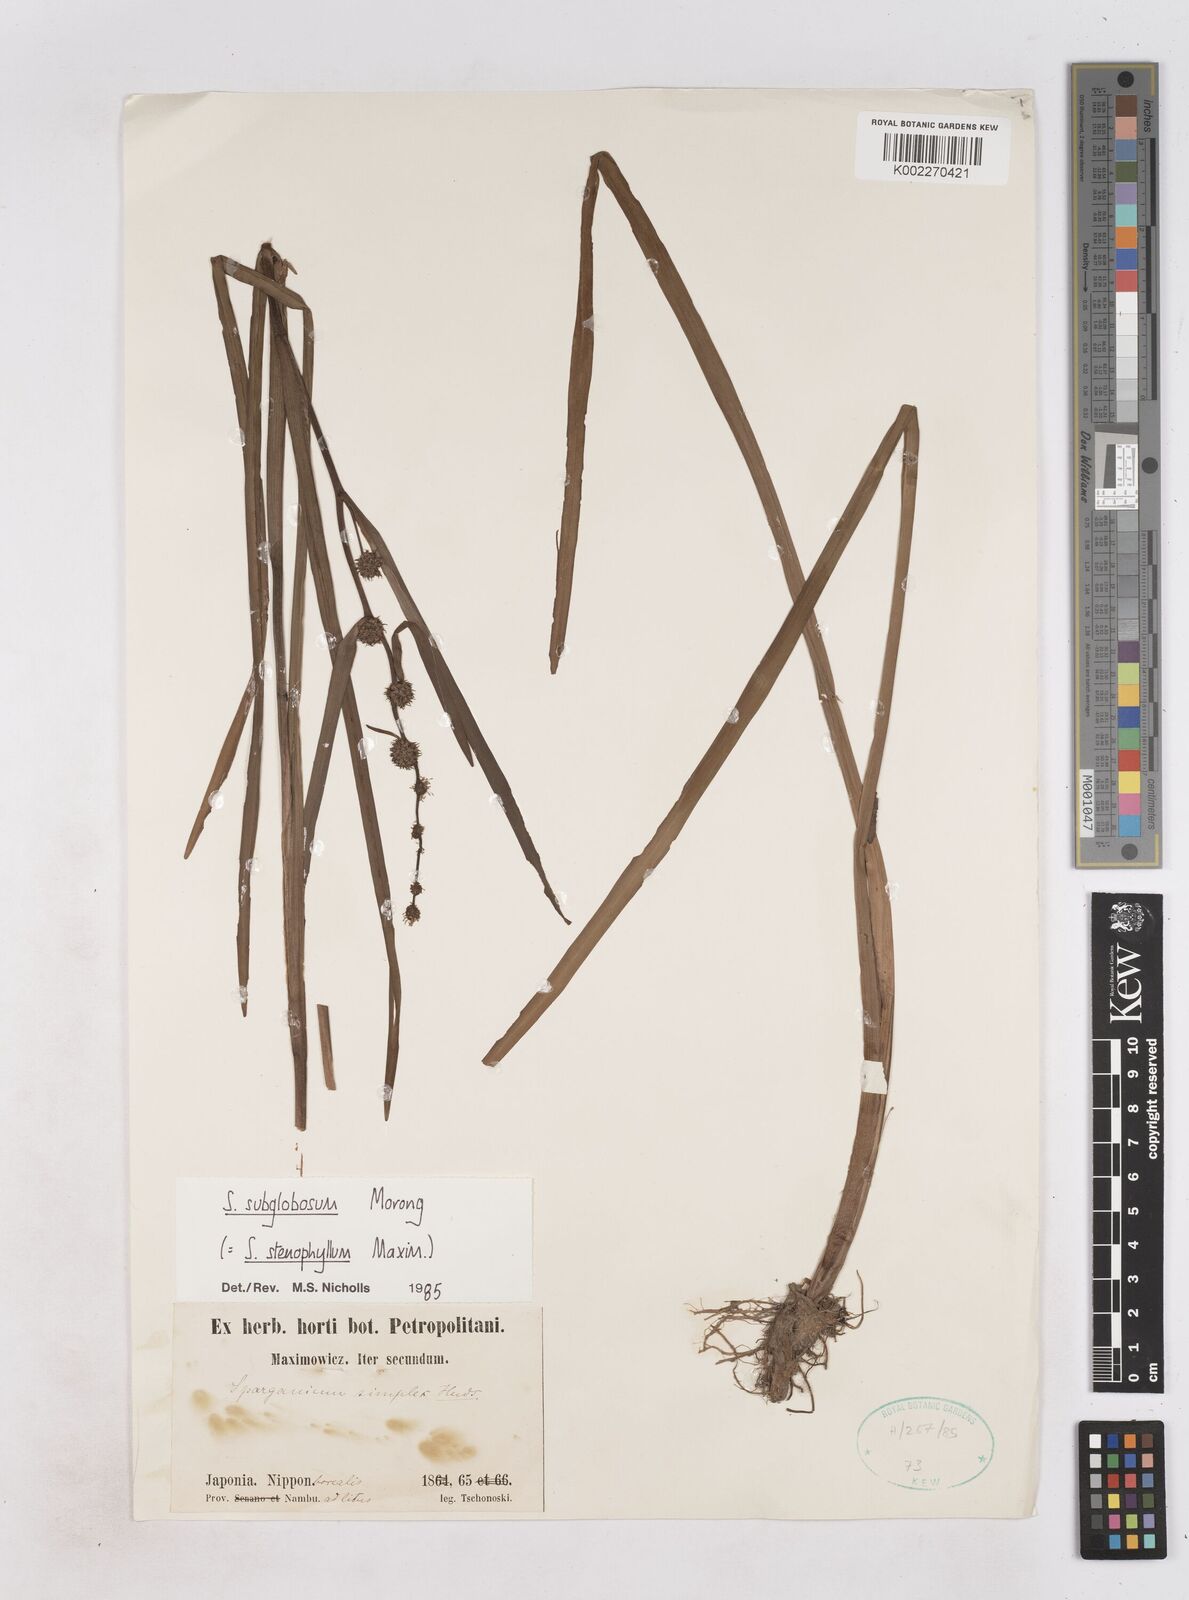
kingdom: Plantae
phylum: Tracheophyta
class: Liliopsida
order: Poales
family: Typhaceae
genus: Sparganium
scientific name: Sparganium emersum
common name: Unbranched bur-reed
